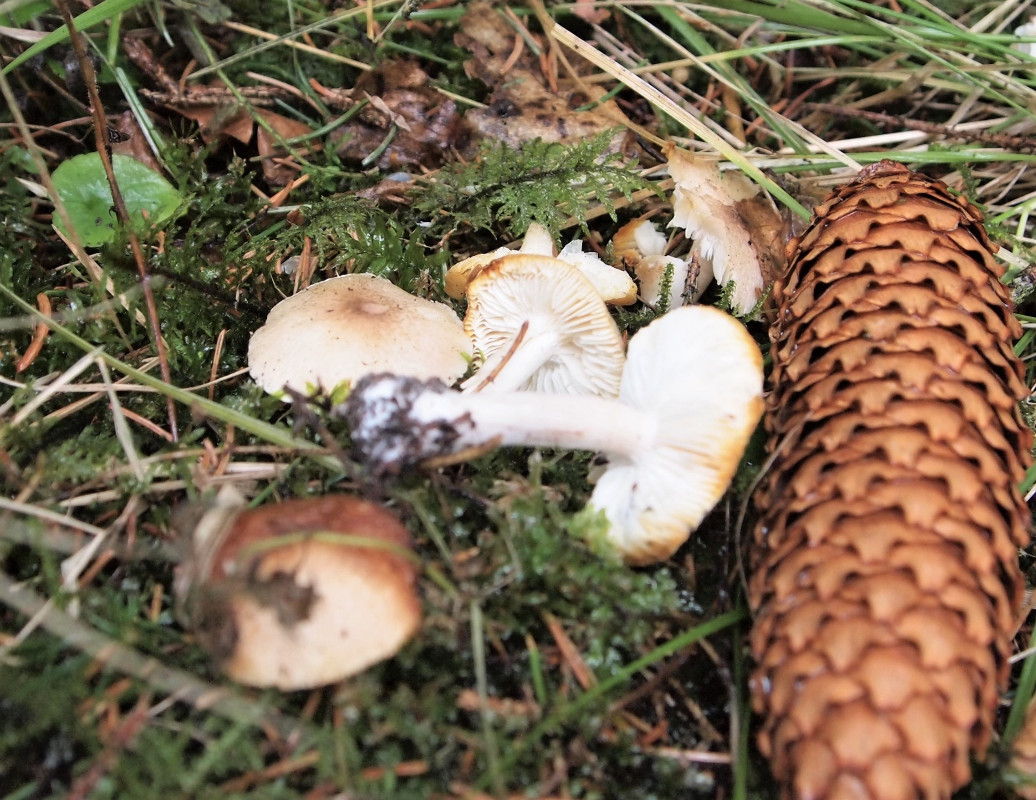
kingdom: Fungi
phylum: Basidiomycota
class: Agaricomycetes
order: Agaricales
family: Tricholomataceae
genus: Tricholoma
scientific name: Tricholoma scalpturatum
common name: gulplettet ridderhat
